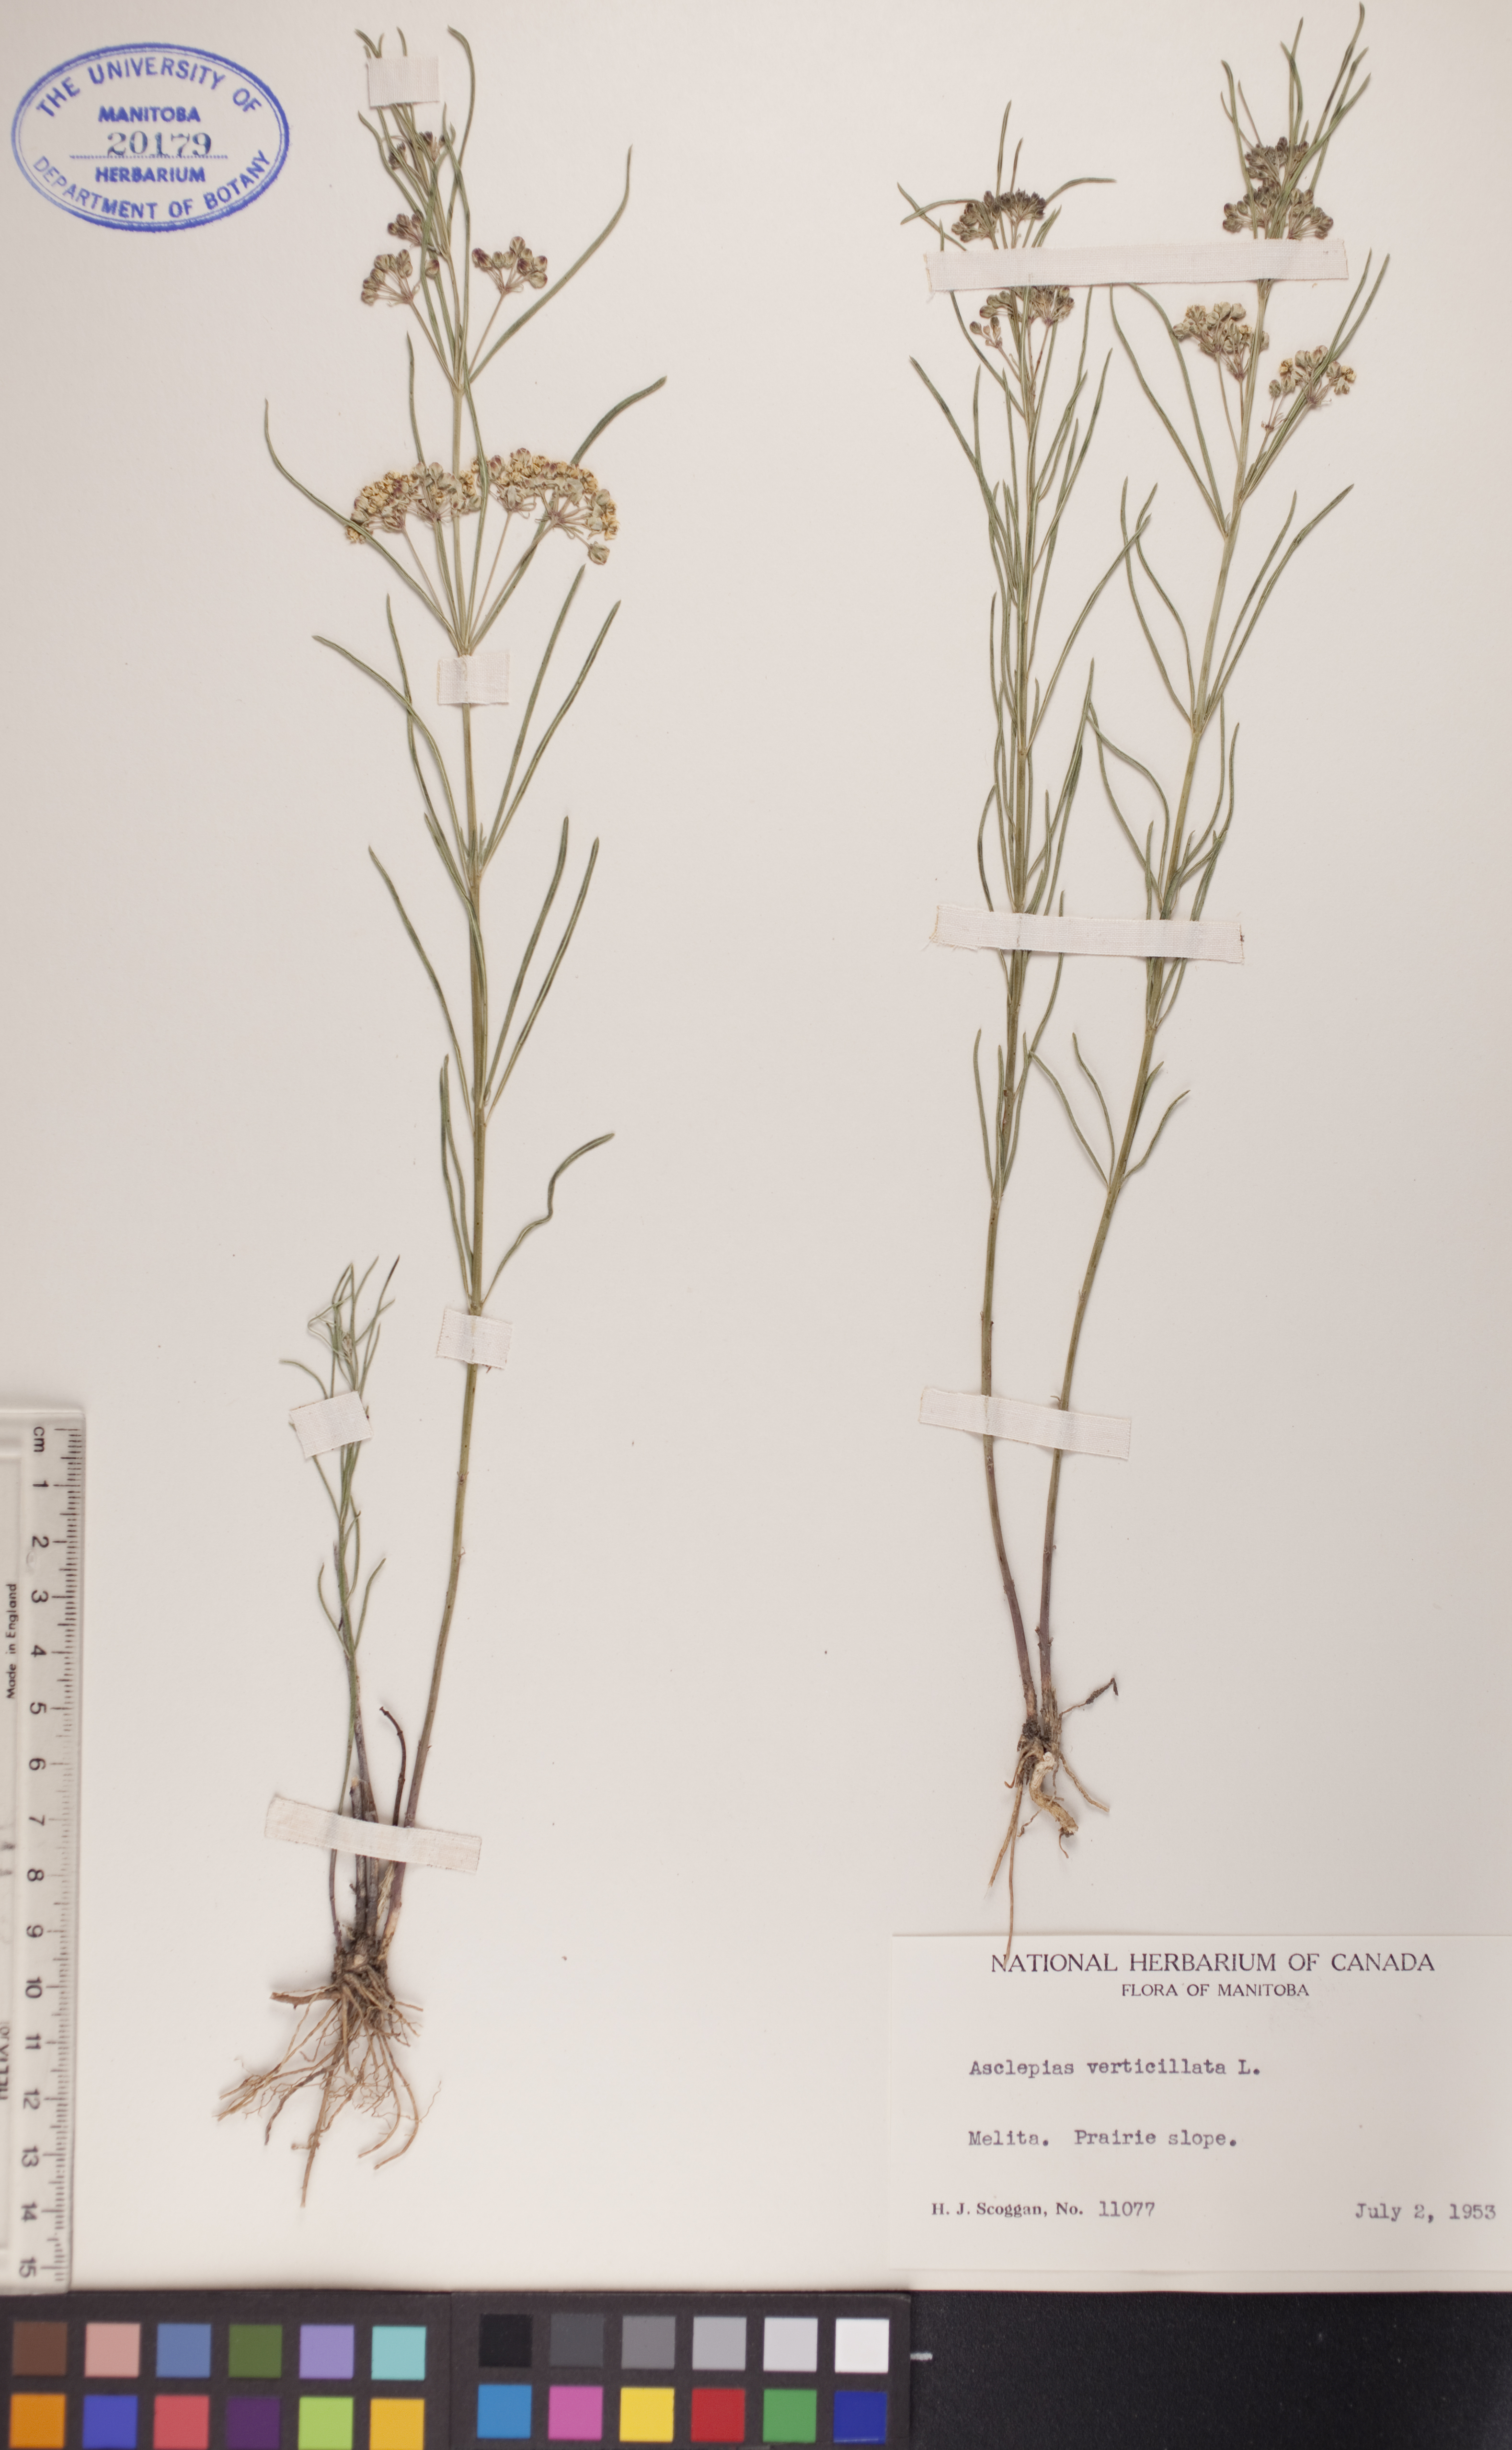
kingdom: Plantae
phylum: Tracheophyta
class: Magnoliopsida
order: Gentianales
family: Apocynaceae
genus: Asclepias
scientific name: Asclepias verticillata
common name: Eastern whorled milkweed
